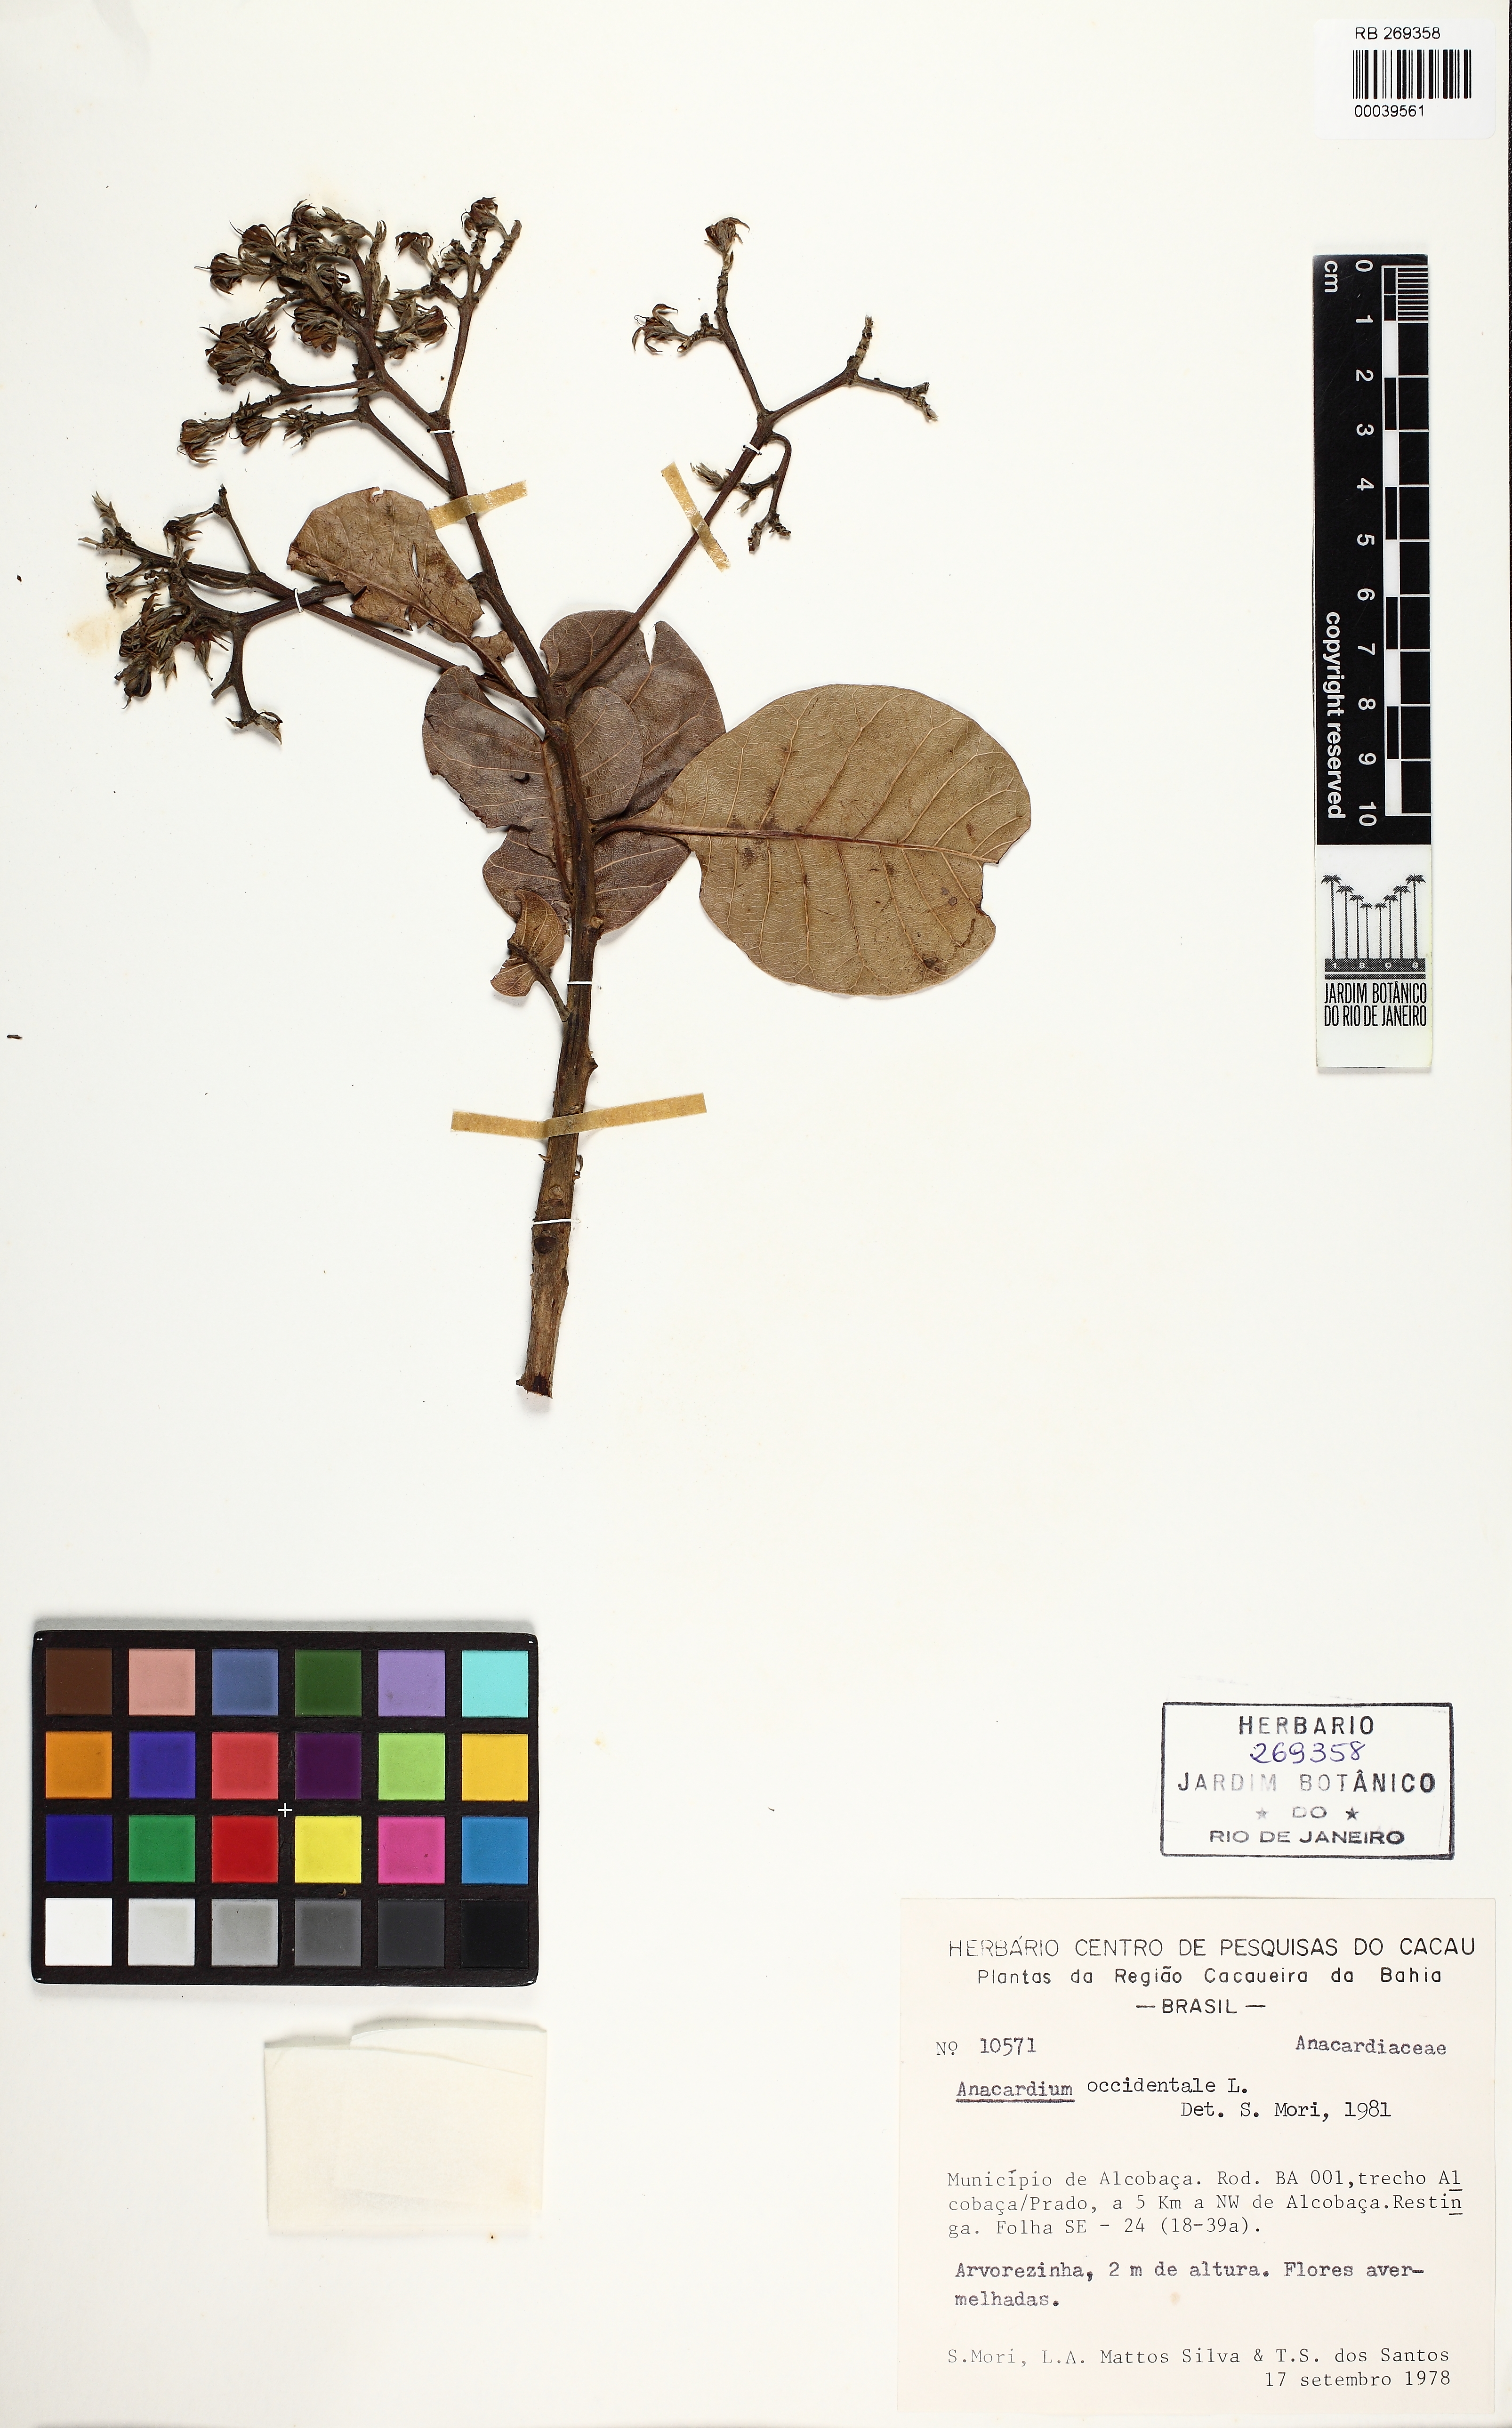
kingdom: Plantae
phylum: Tracheophyta
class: Magnoliopsida
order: Sapindales
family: Anacardiaceae
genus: Anacardium
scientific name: Anacardium occidentale
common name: Cashew
